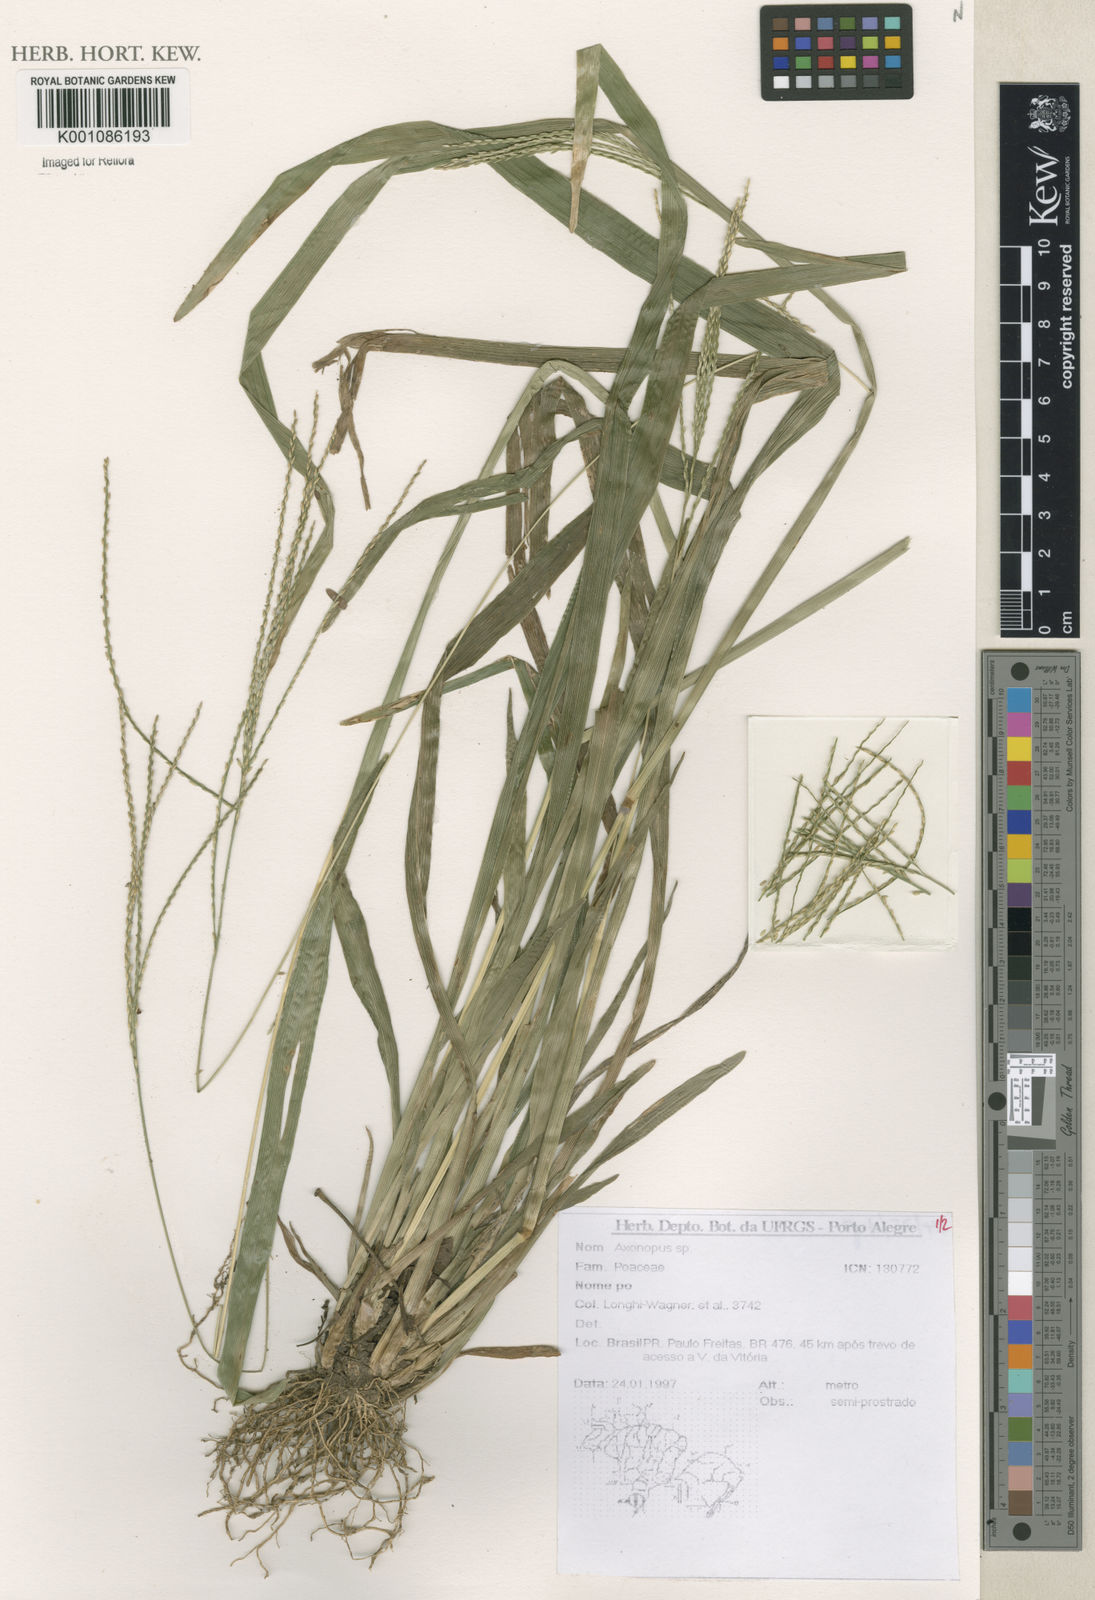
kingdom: Plantae
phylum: Tracheophyta
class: Liliopsida
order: Poales
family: Poaceae
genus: Axonopus
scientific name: Axonopus
